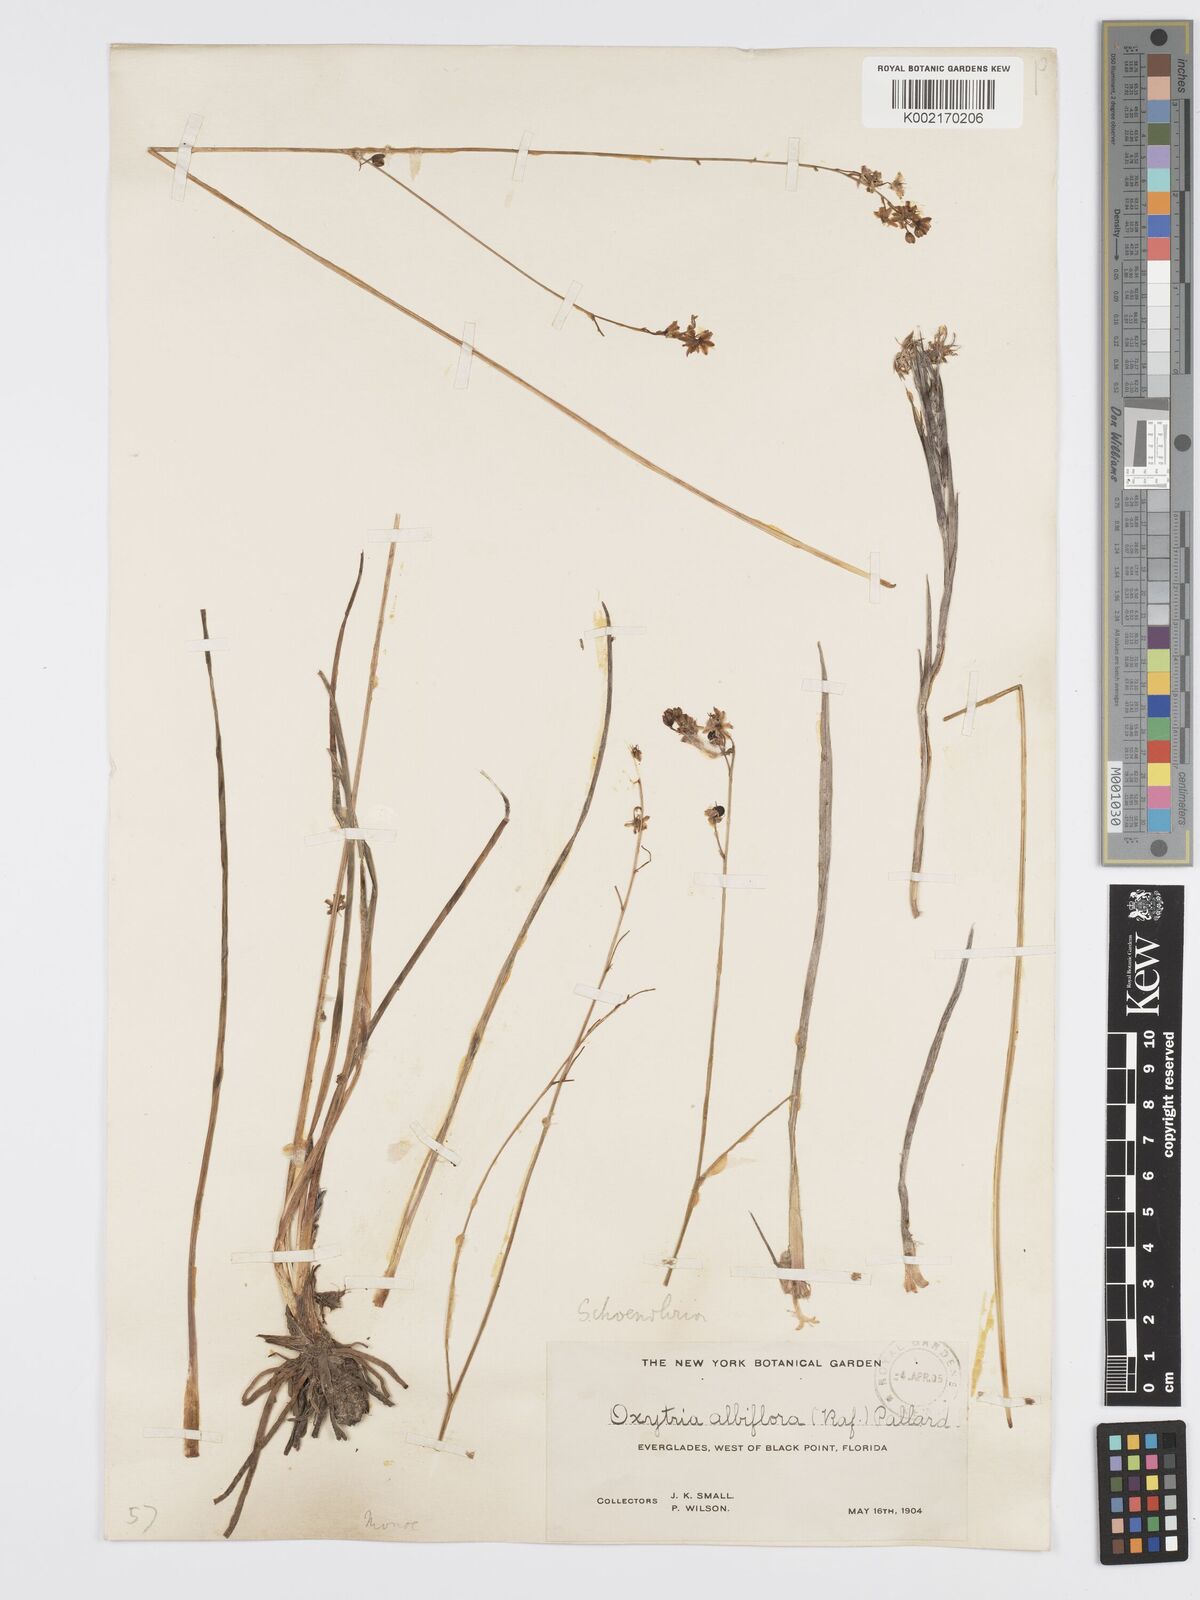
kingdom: Plantae
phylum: Tracheophyta
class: Liliopsida
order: Asparagales
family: Asparagaceae
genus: Schoenolirion
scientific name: Schoenolirion albiflorum
